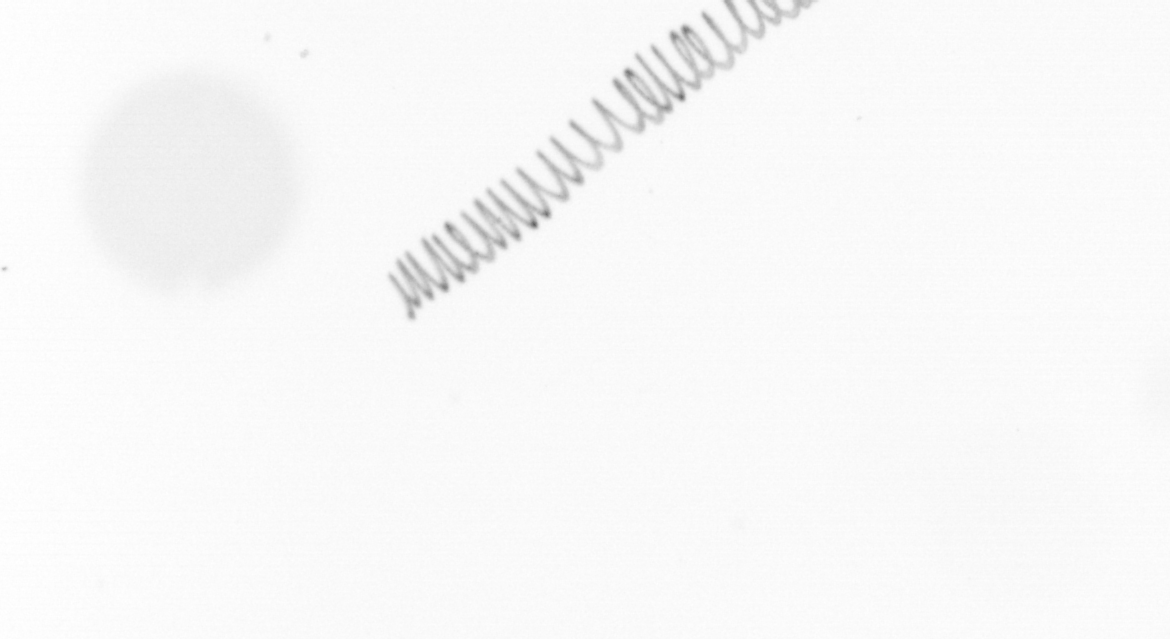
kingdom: Chromista
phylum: Ochrophyta
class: Bacillariophyceae
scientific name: Bacillariophyceae
